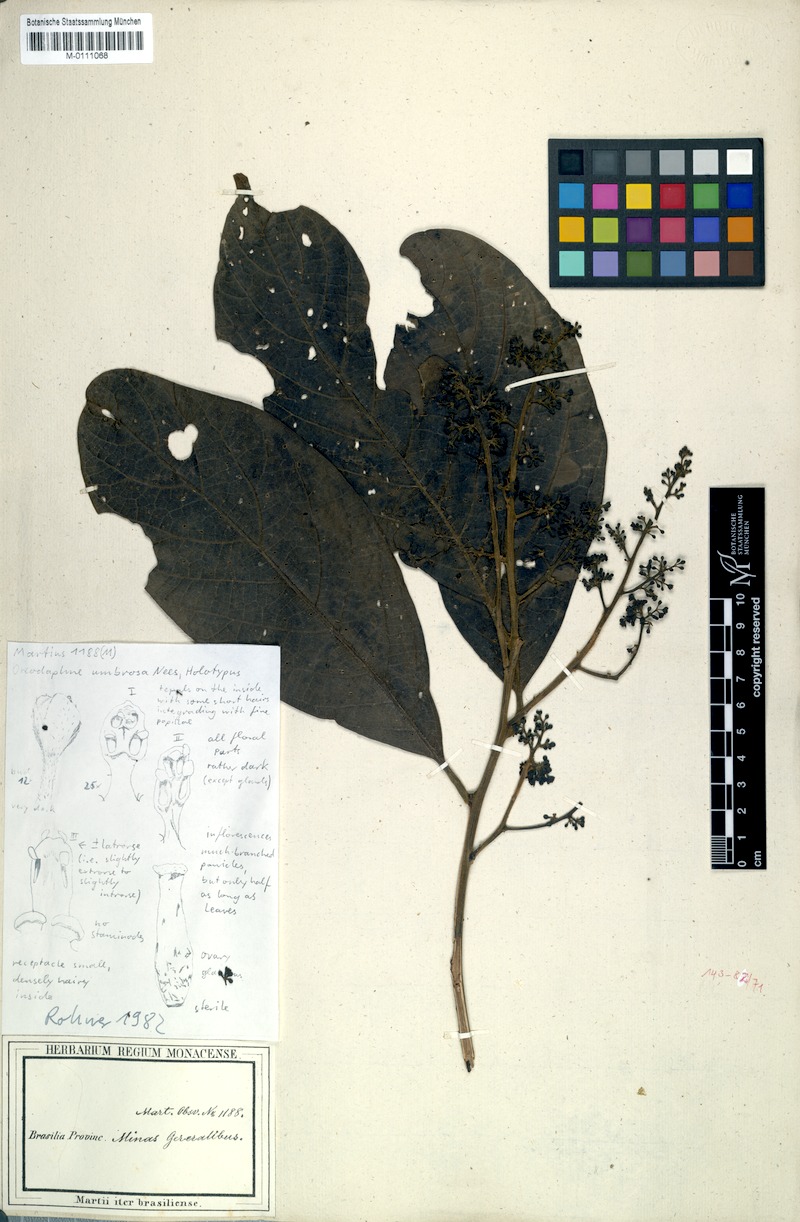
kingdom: Plantae
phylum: Tracheophyta
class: Magnoliopsida
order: Laurales
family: Lauraceae
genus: Ocotea
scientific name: Ocotea tabacifolia
